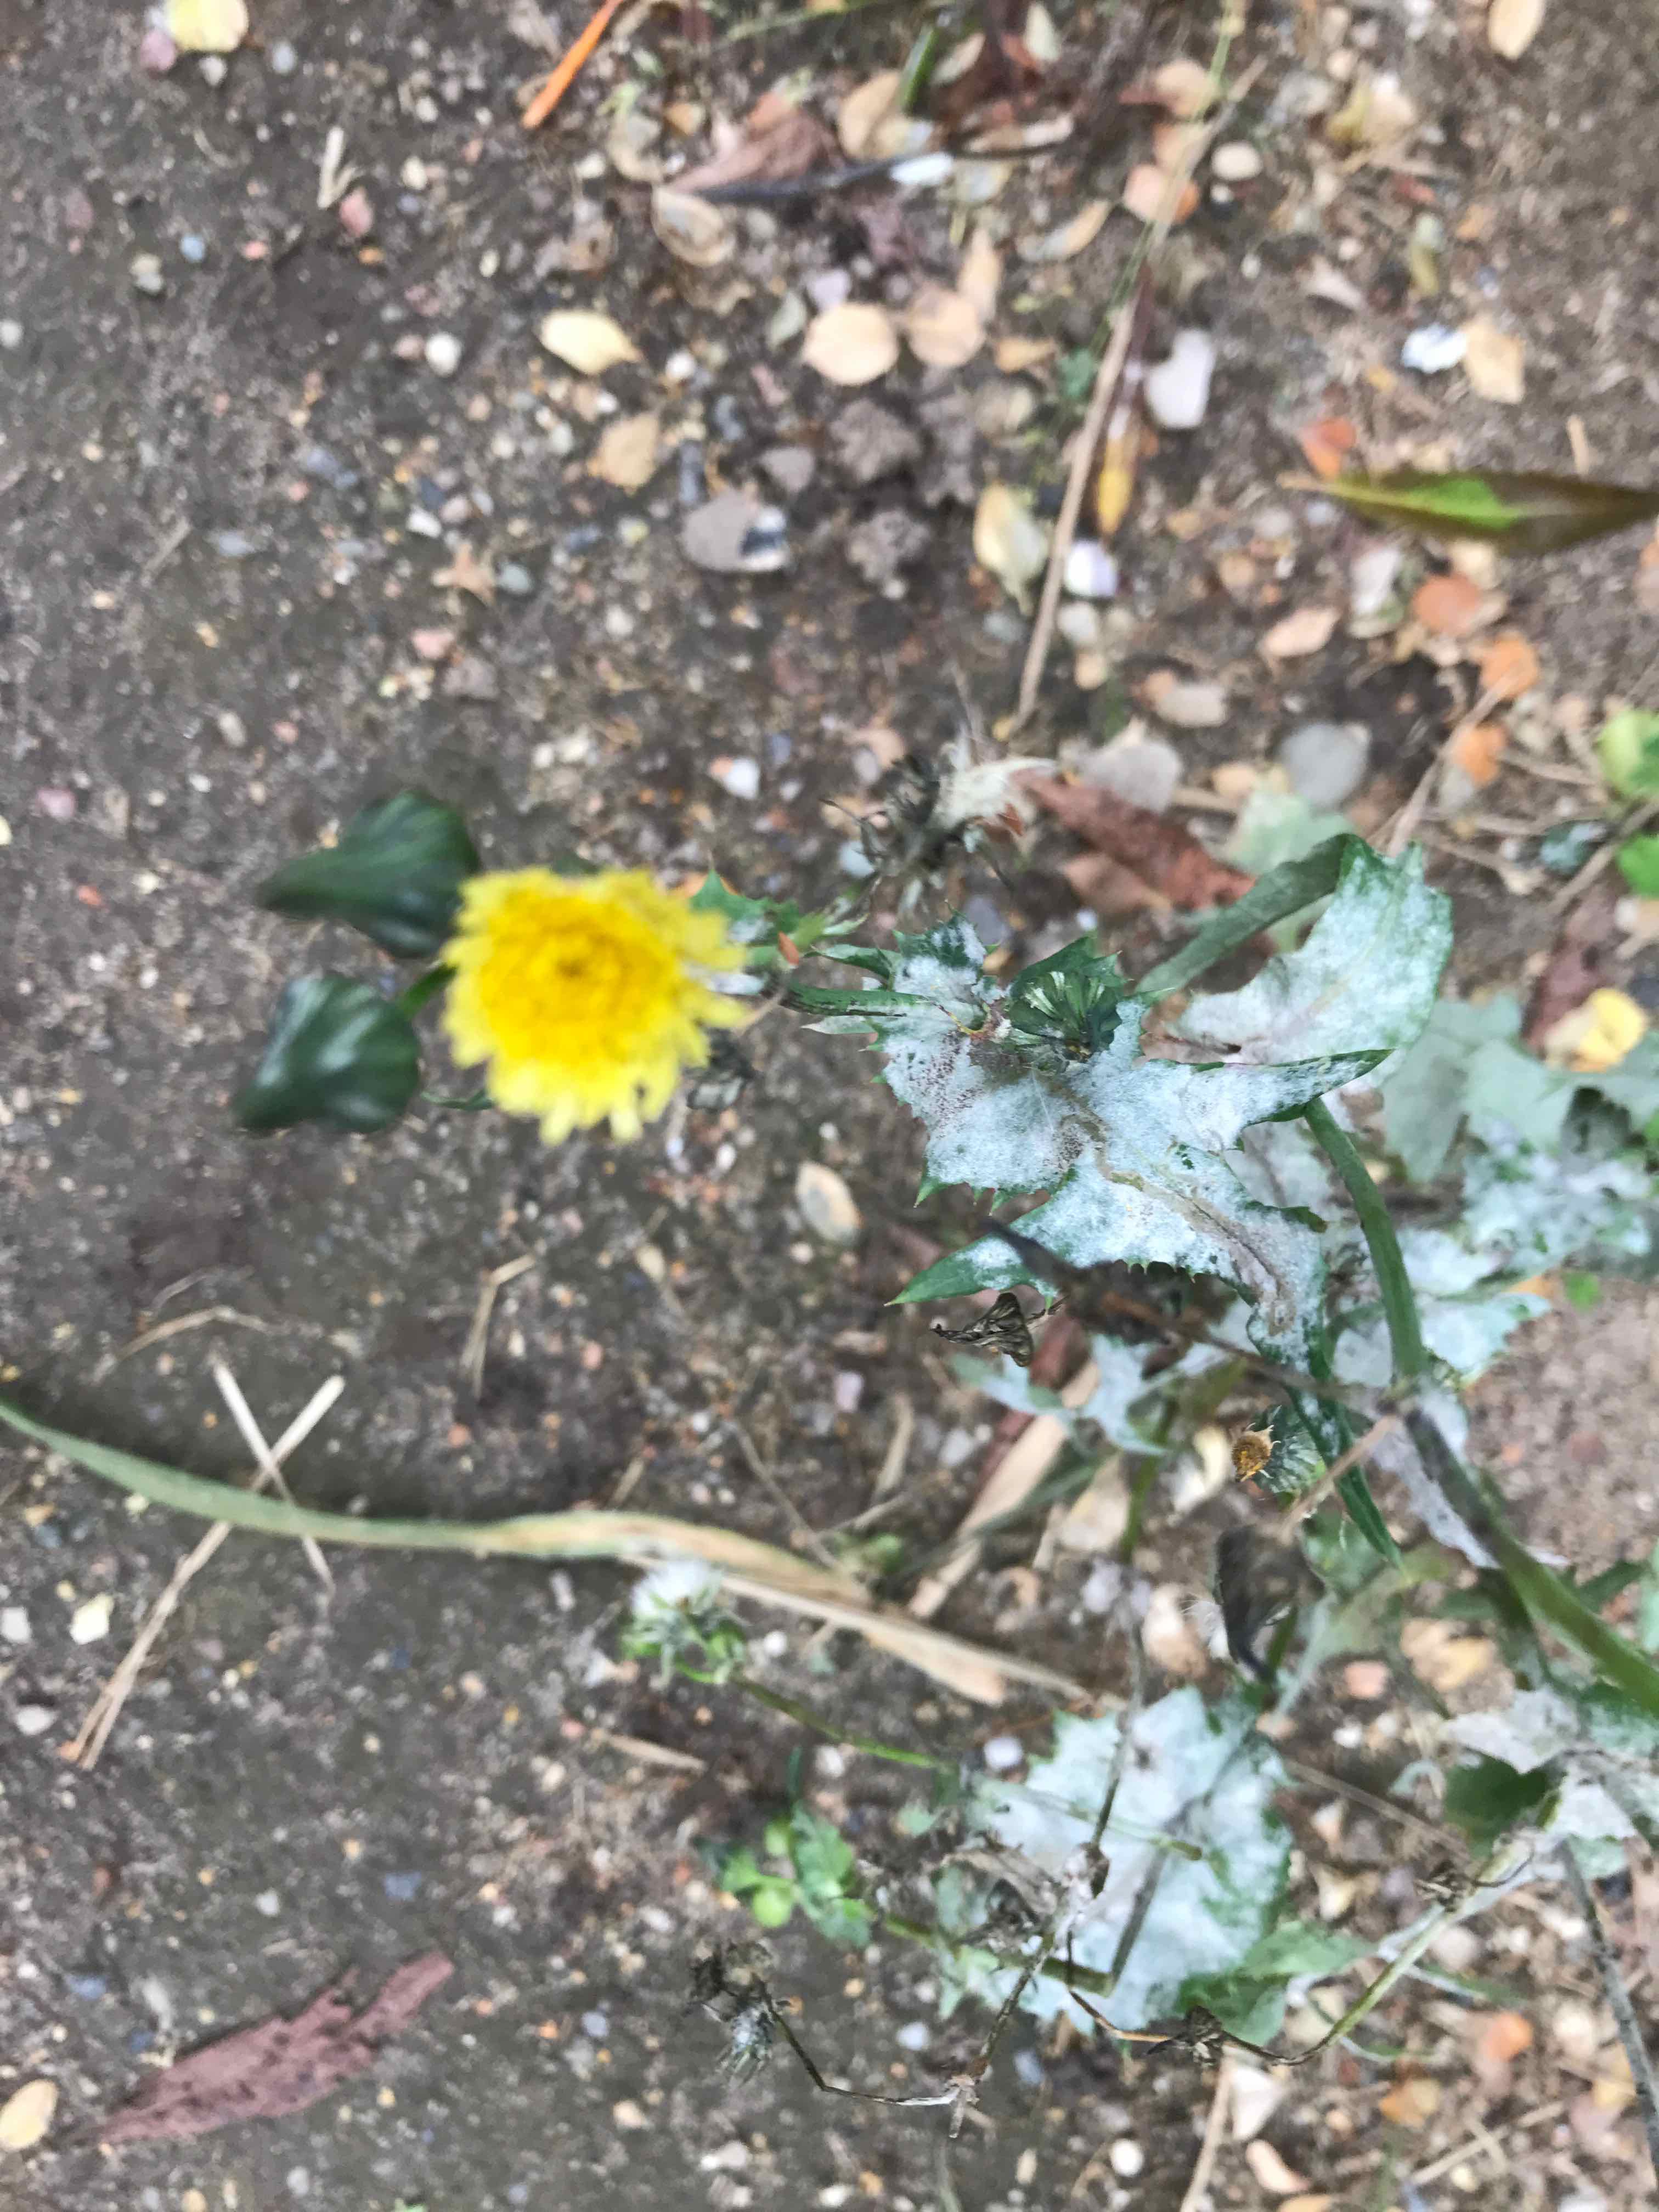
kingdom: Fungi
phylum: Ascomycota
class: Leotiomycetes
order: Helotiales
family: Erysiphaceae
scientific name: Erysiphaceae
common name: meldugfamilien
